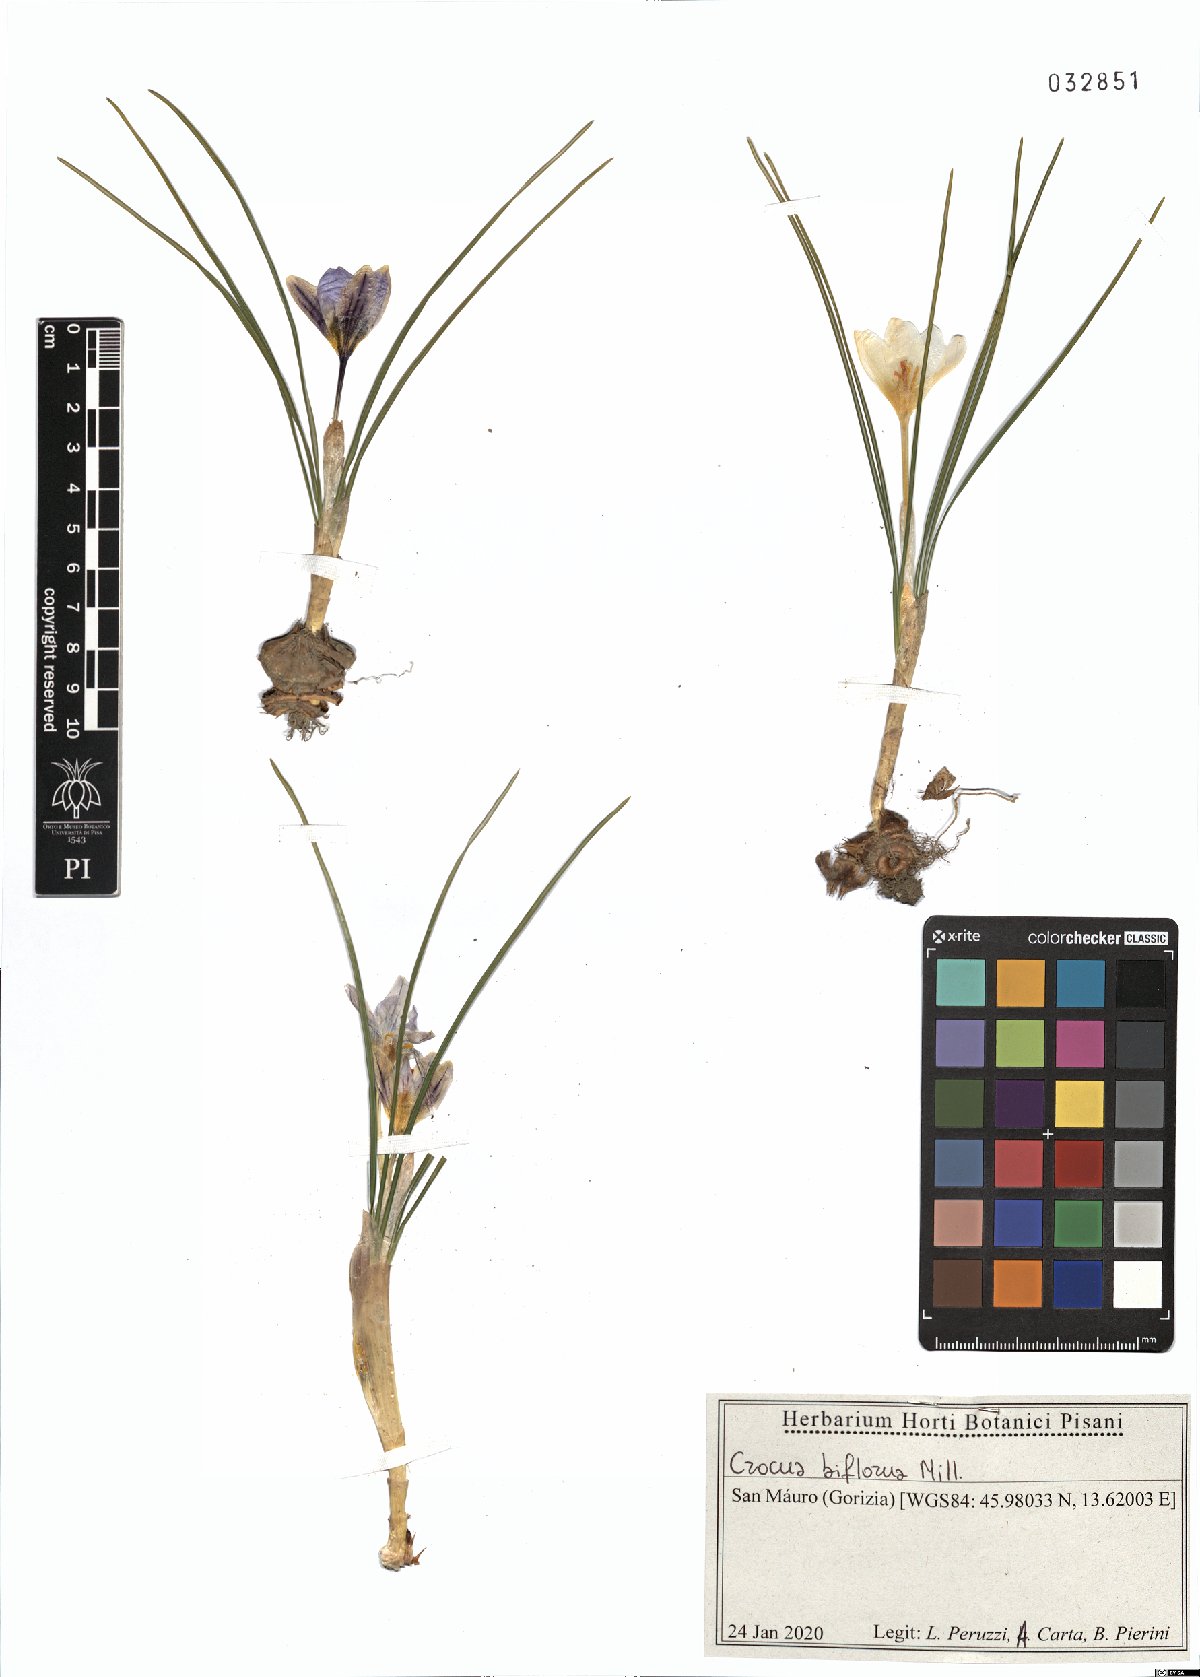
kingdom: Plantae
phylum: Tracheophyta
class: Liliopsida
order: Asparagales
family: Iridaceae
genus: Crocus
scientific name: Crocus biflorus
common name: Silvery crocus
